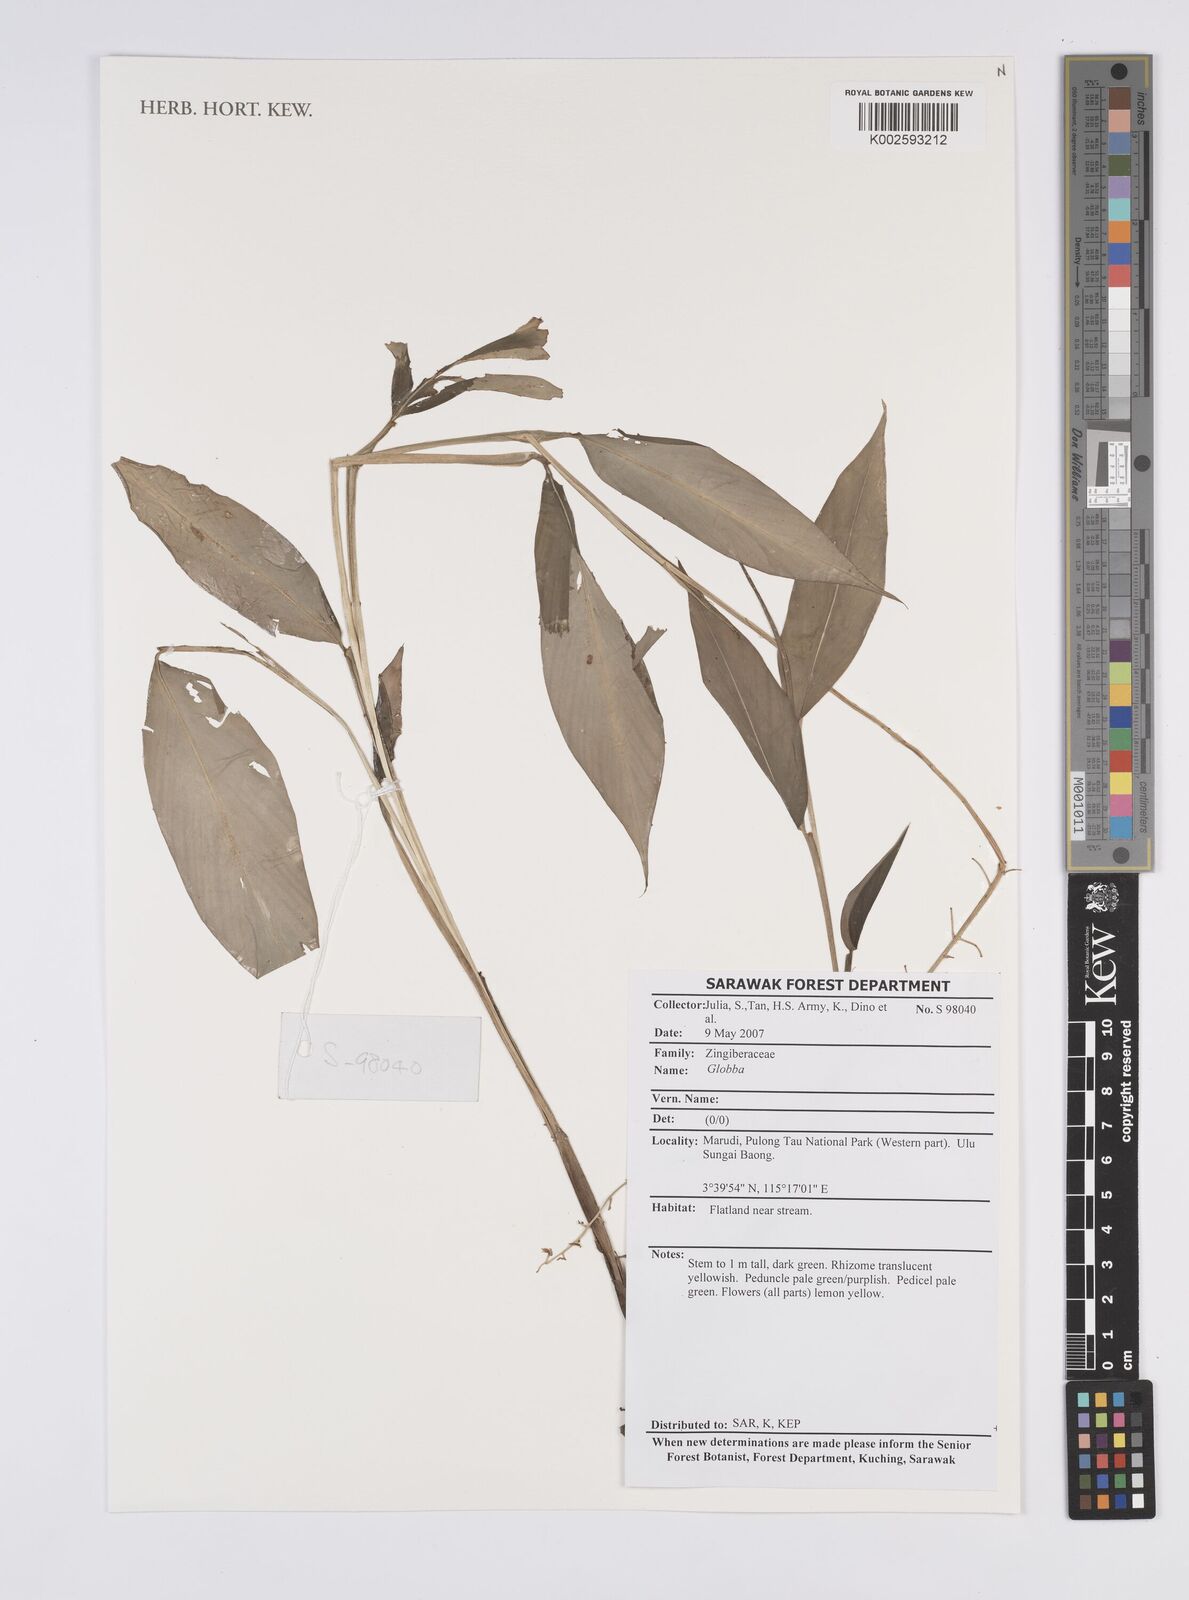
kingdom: Plantae
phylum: Tracheophyta
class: Liliopsida
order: Zingiberales
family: Zingiberaceae
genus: Globba
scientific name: Globba
